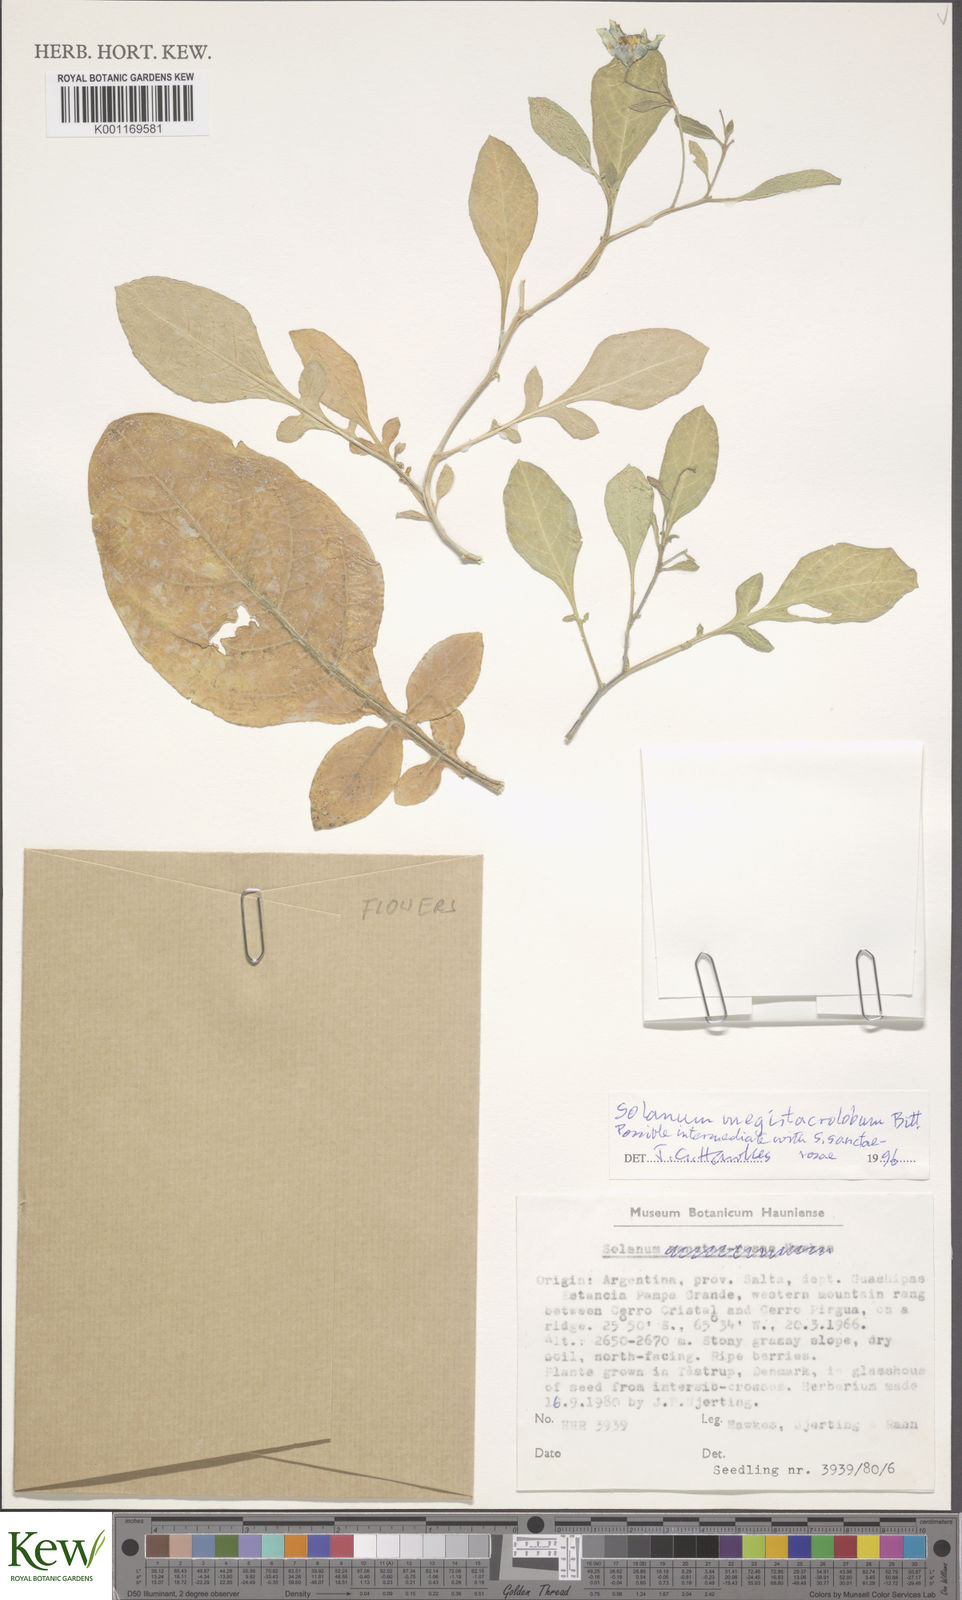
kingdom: Plantae
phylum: Tracheophyta
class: Magnoliopsida
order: Solanales
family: Solanaceae
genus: Solanum
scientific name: Solanum boliviense
